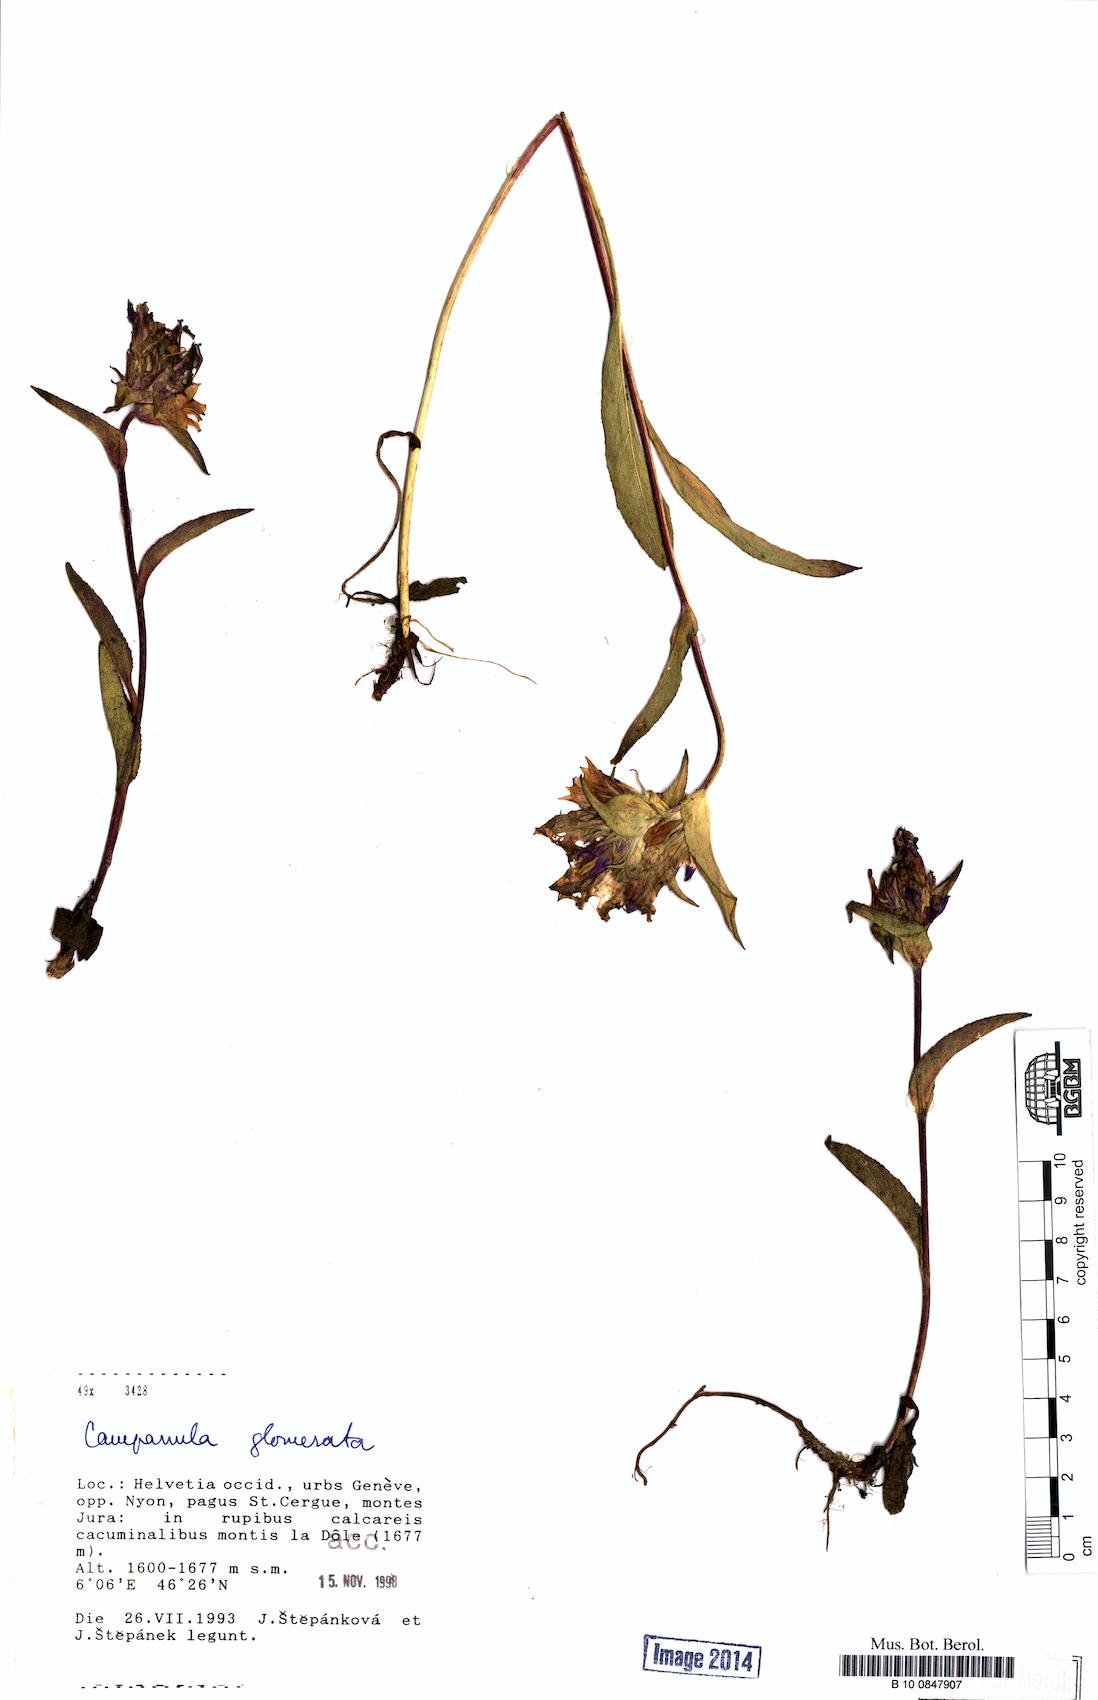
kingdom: Plantae
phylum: Tracheophyta
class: Magnoliopsida
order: Asterales
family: Campanulaceae
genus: Campanula
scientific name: Campanula glomerata
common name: Clustered bellflower
